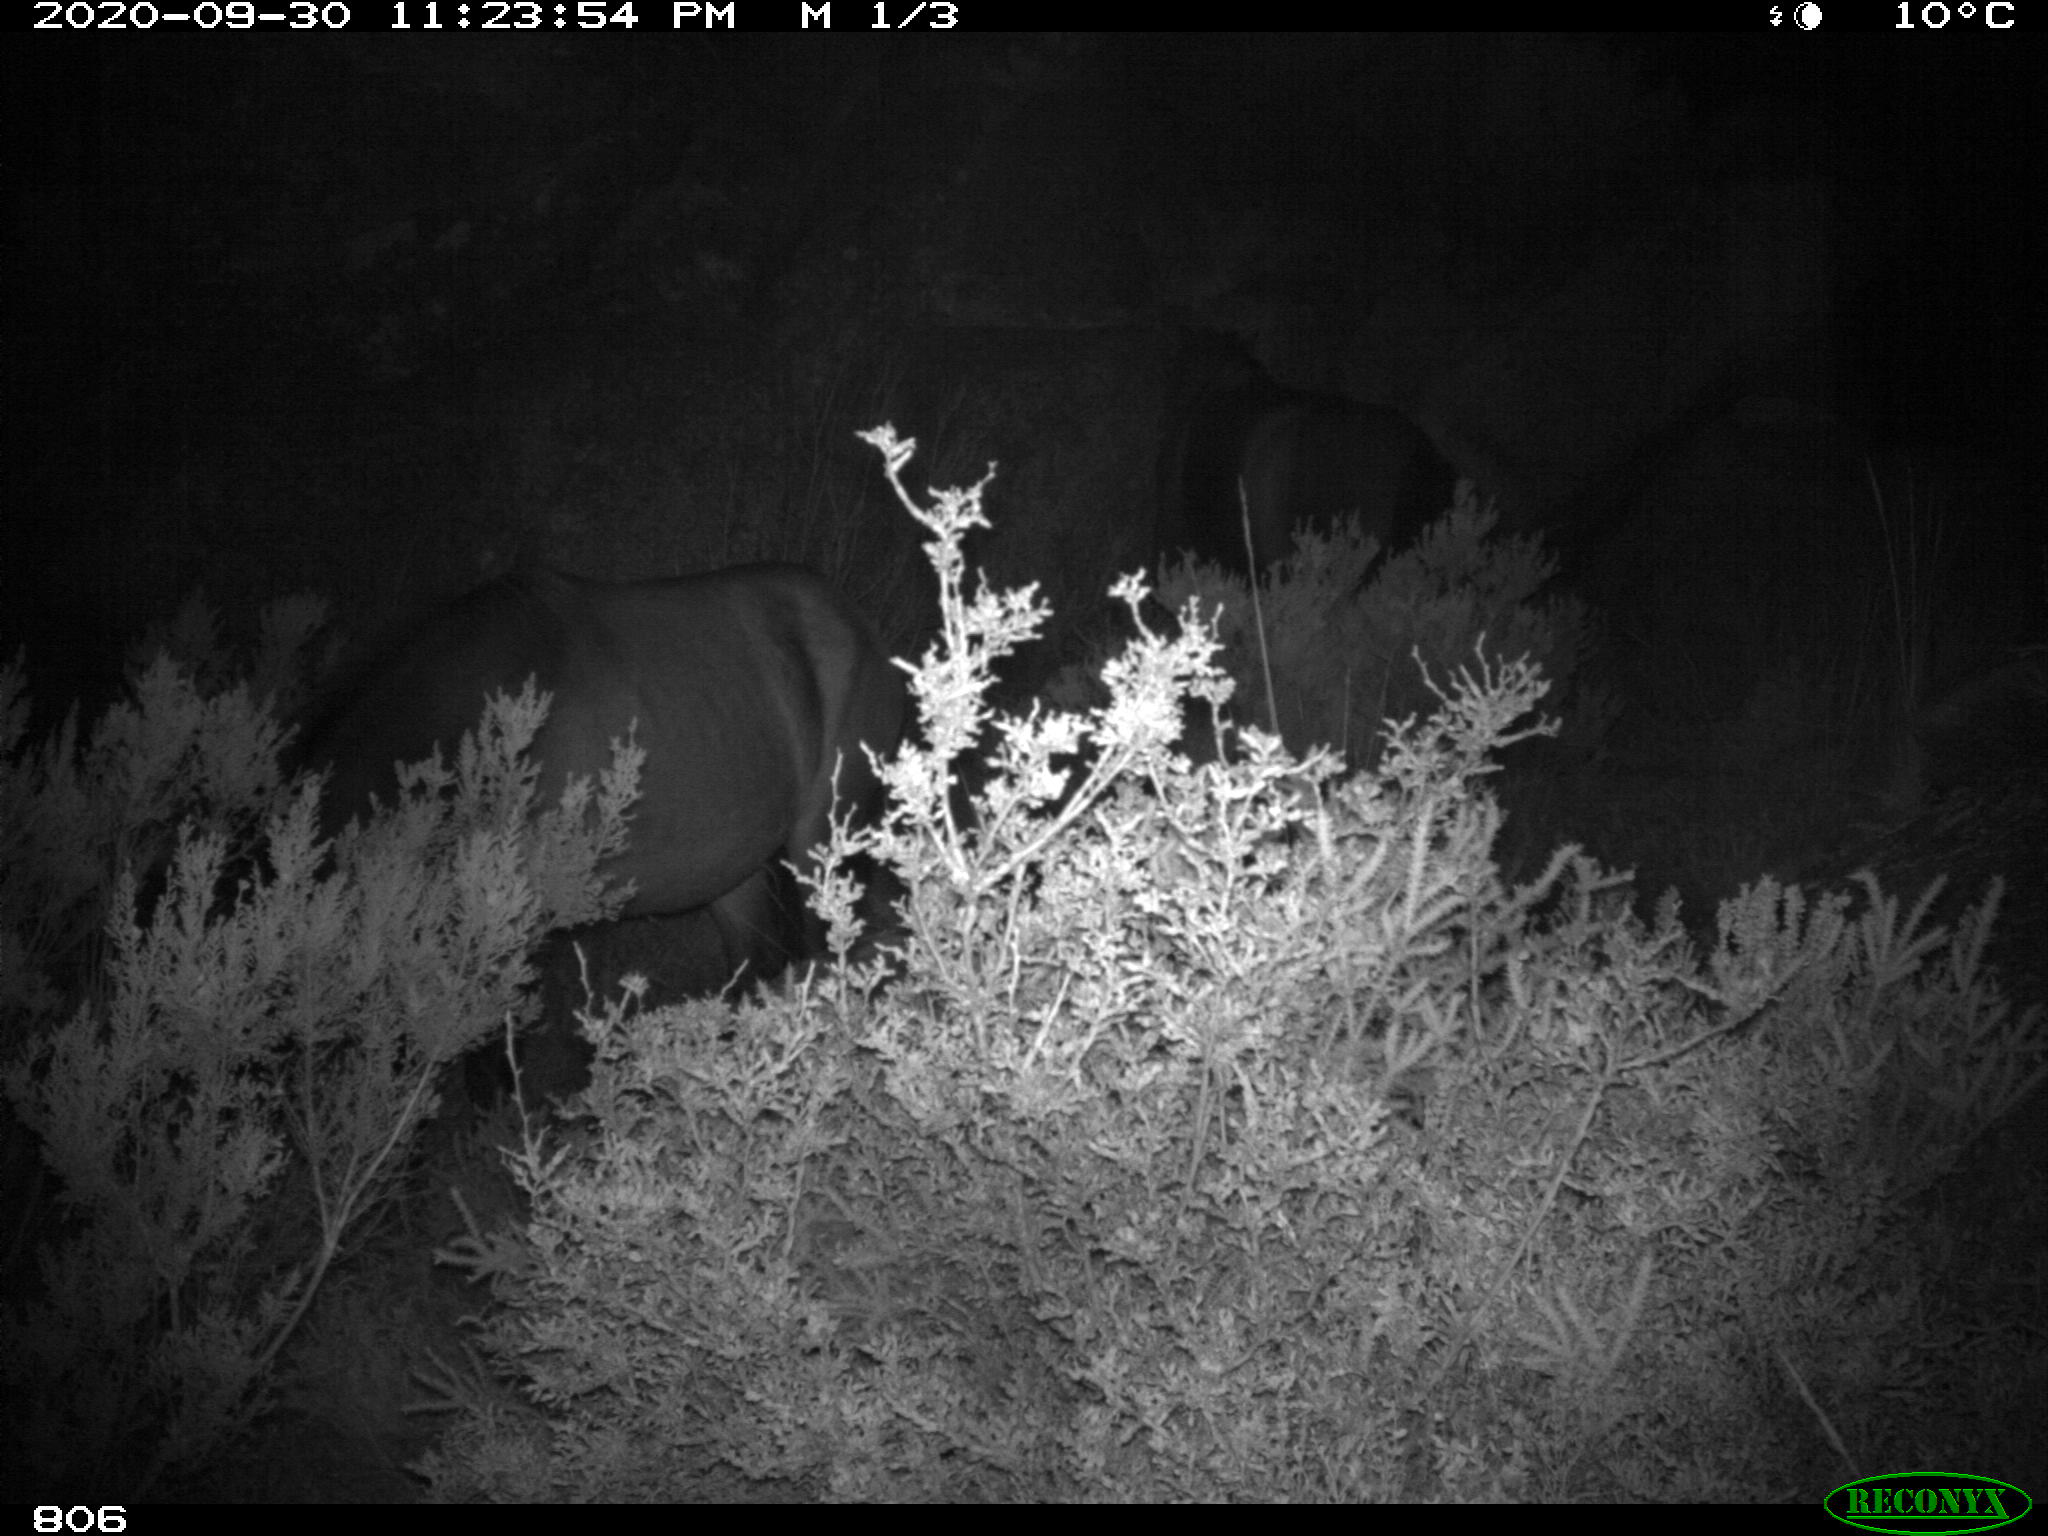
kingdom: Animalia
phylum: Chordata
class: Mammalia
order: Perissodactyla
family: Equidae
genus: Equus
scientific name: Equus caballus
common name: Horse
